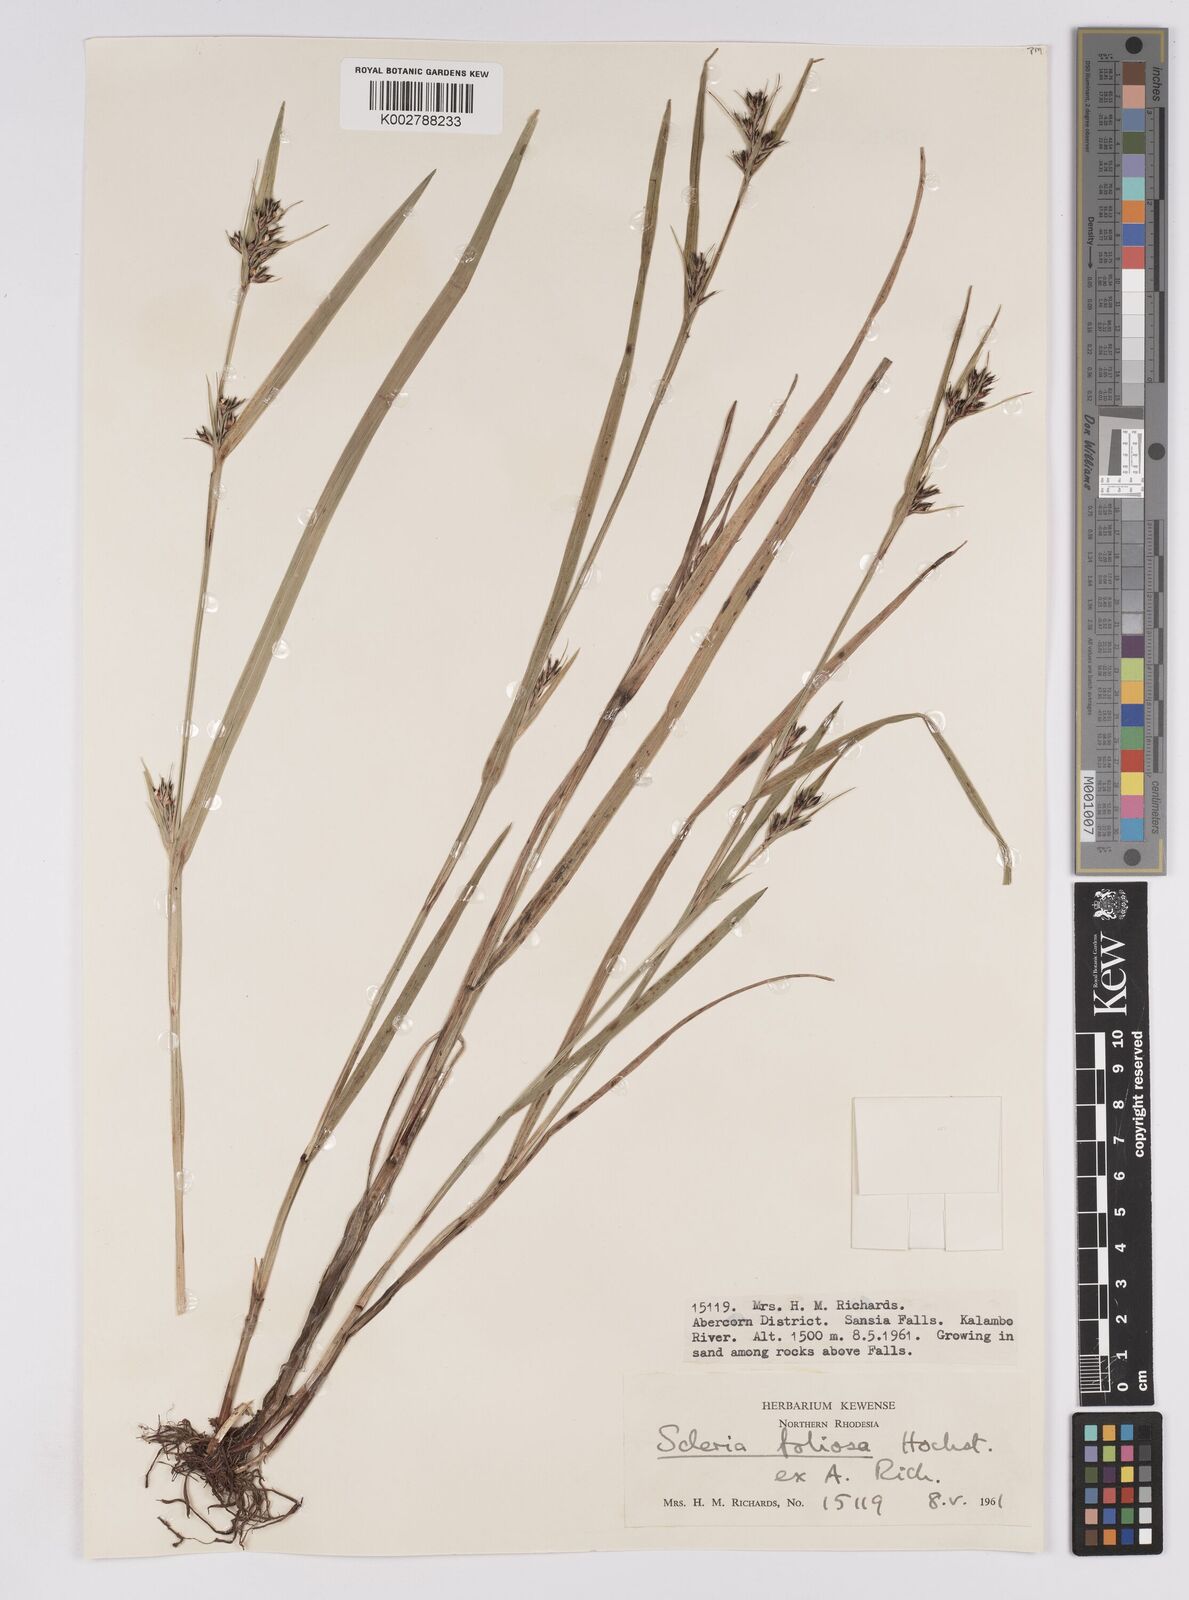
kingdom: Plantae
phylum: Tracheophyta
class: Liliopsida
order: Poales
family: Cyperaceae
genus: Scleria
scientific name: Scleria foliosa
